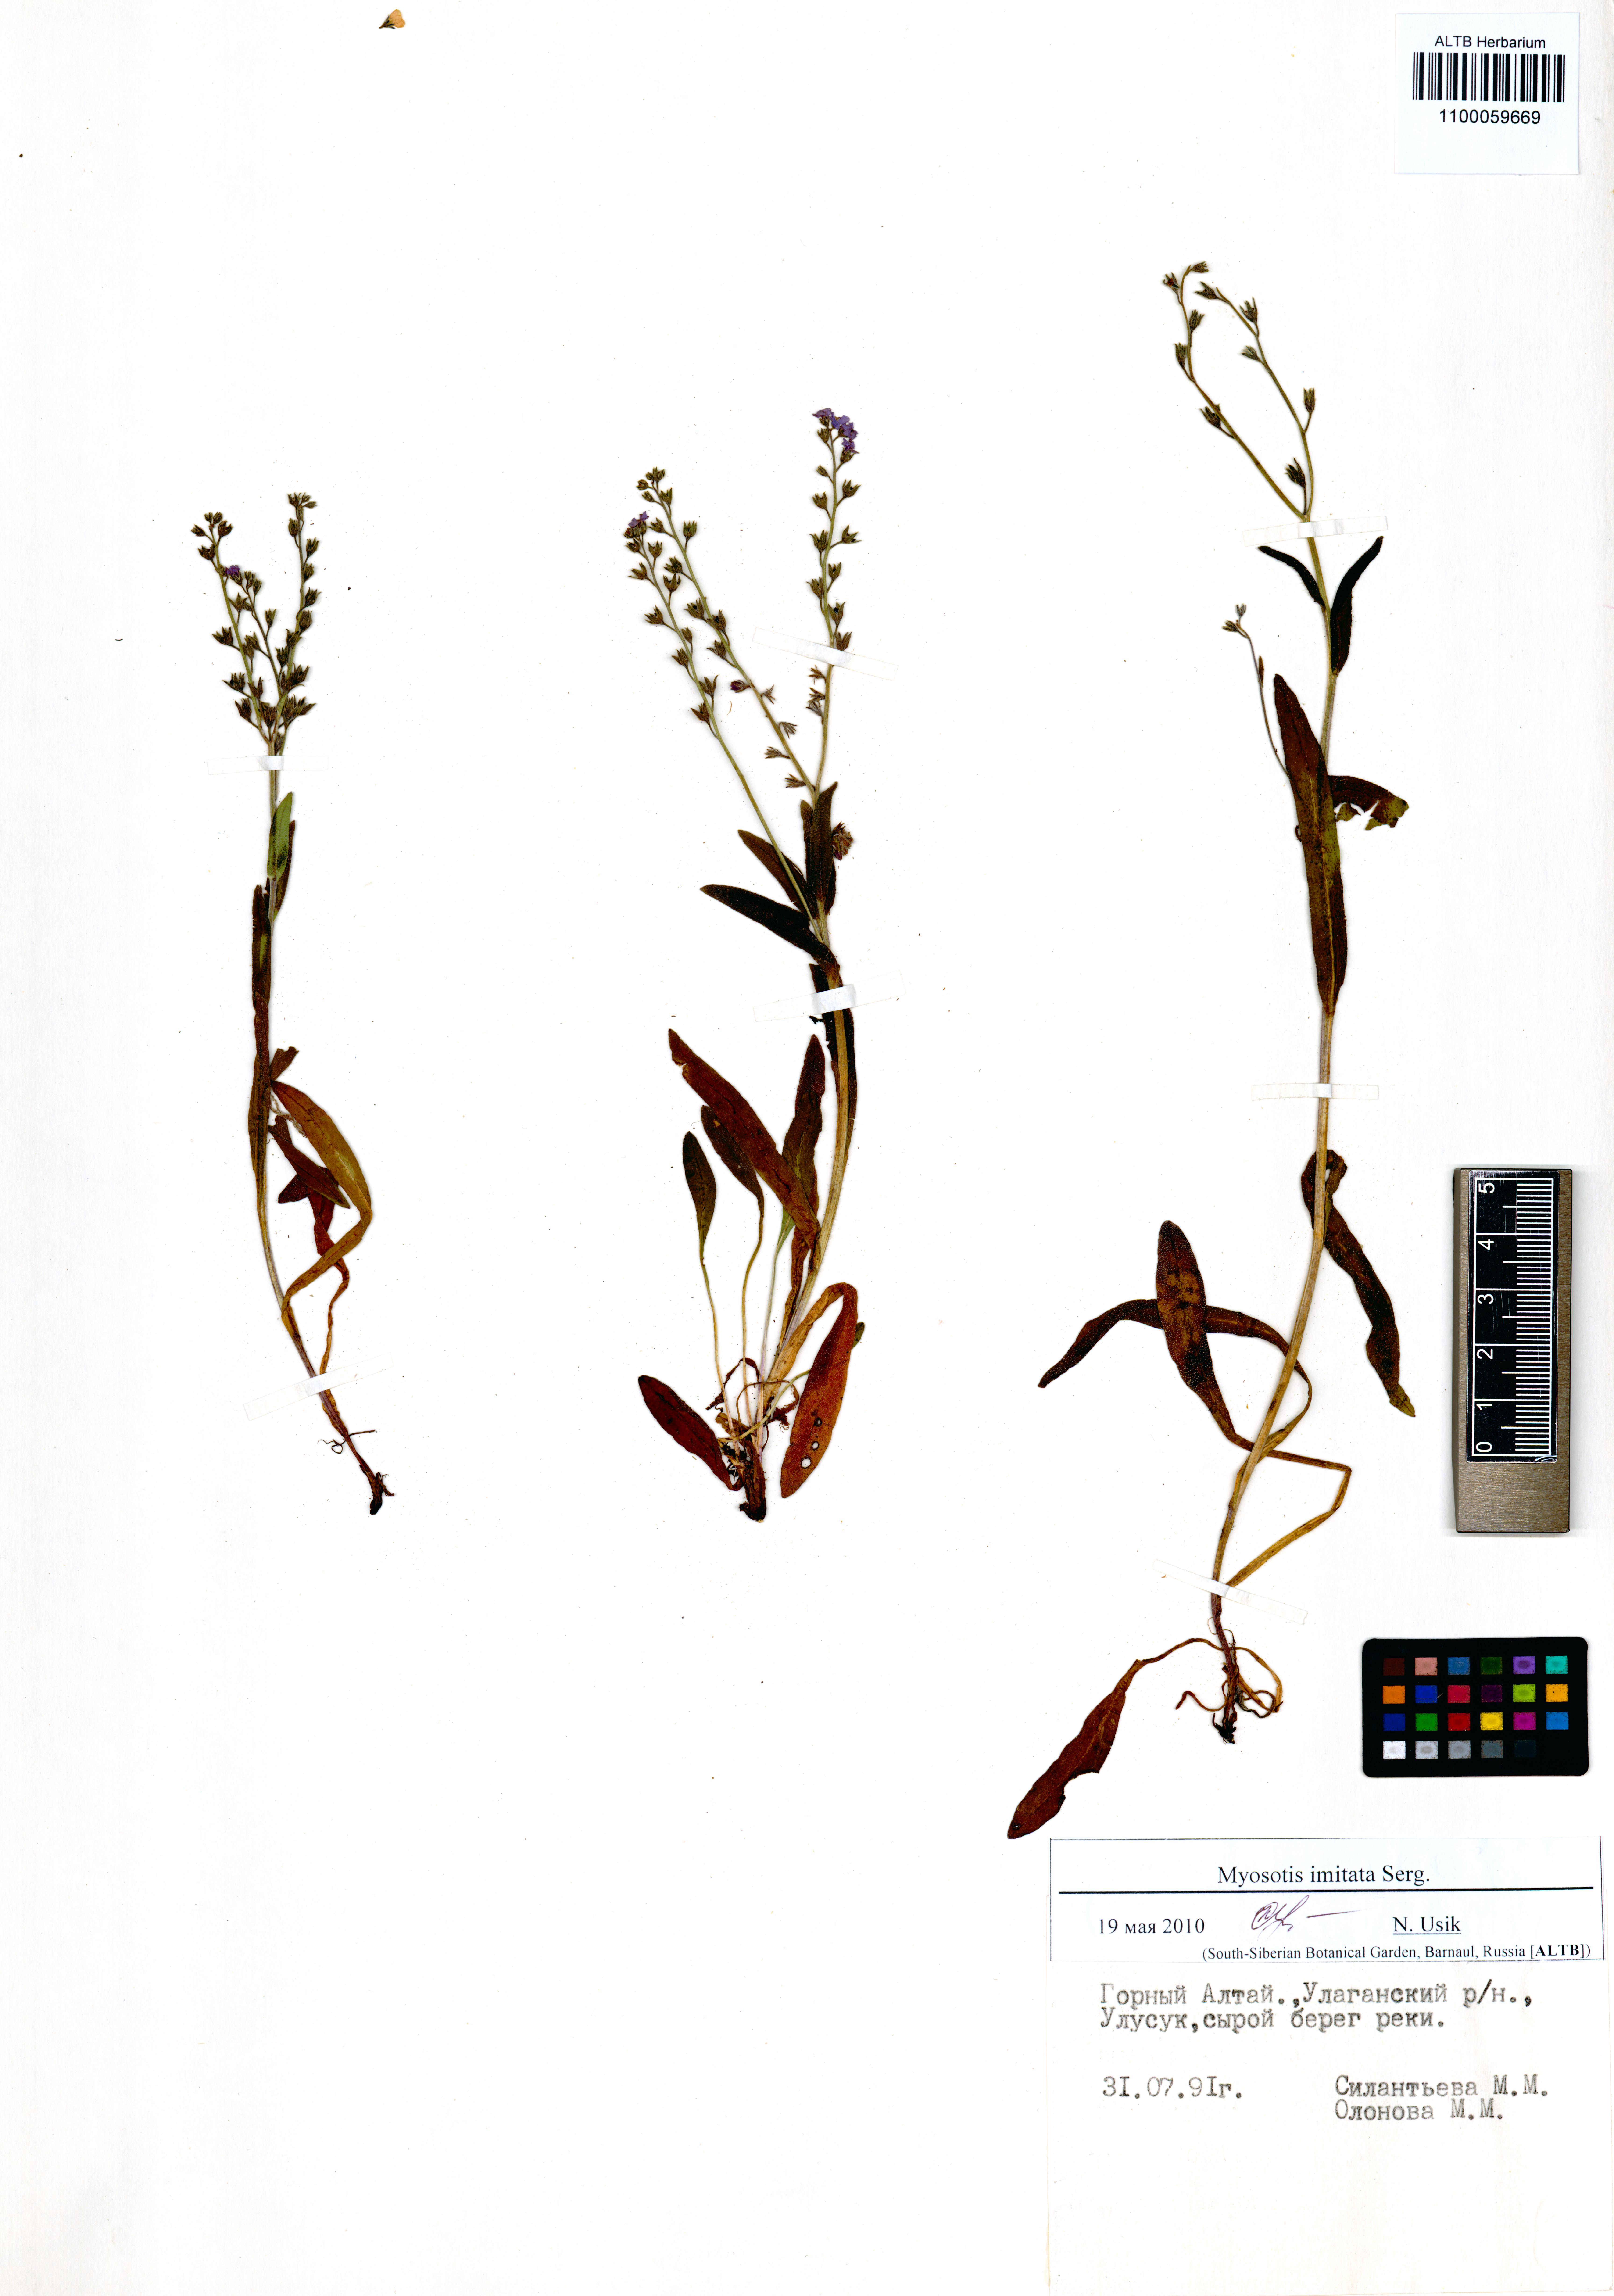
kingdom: Plantae
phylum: Tracheophyta
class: Magnoliopsida
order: Boraginales
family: Boraginaceae
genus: Myosotis
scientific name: Myosotis imitata
